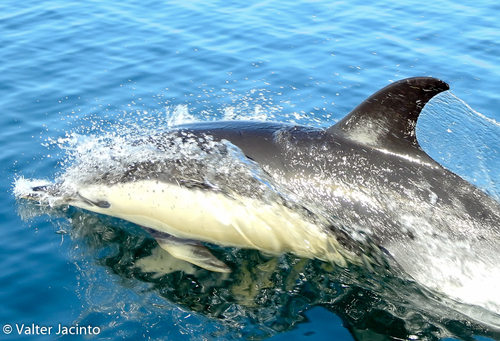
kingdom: Animalia
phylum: Chordata
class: Mammalia
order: Cetacea
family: Delphinidae
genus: Delphinus
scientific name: Delphinus delphis
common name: Common dolphin
